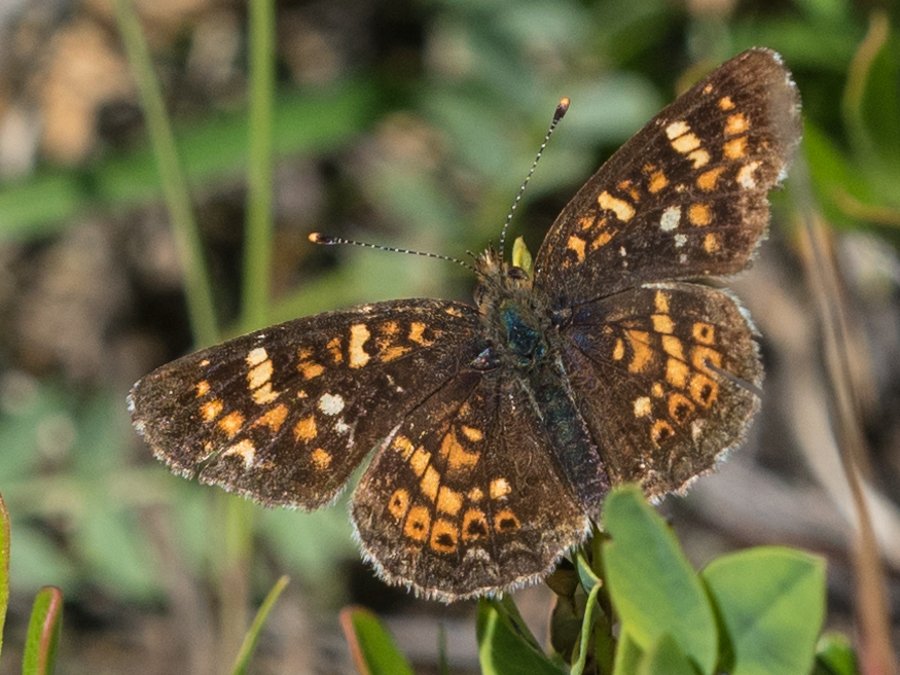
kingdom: Animalia
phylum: Arthropoda
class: Insecta
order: Lepidoptera
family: Nymphalidae
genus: Phyciodes
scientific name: Phyciodes tharos
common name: Field Crescent
